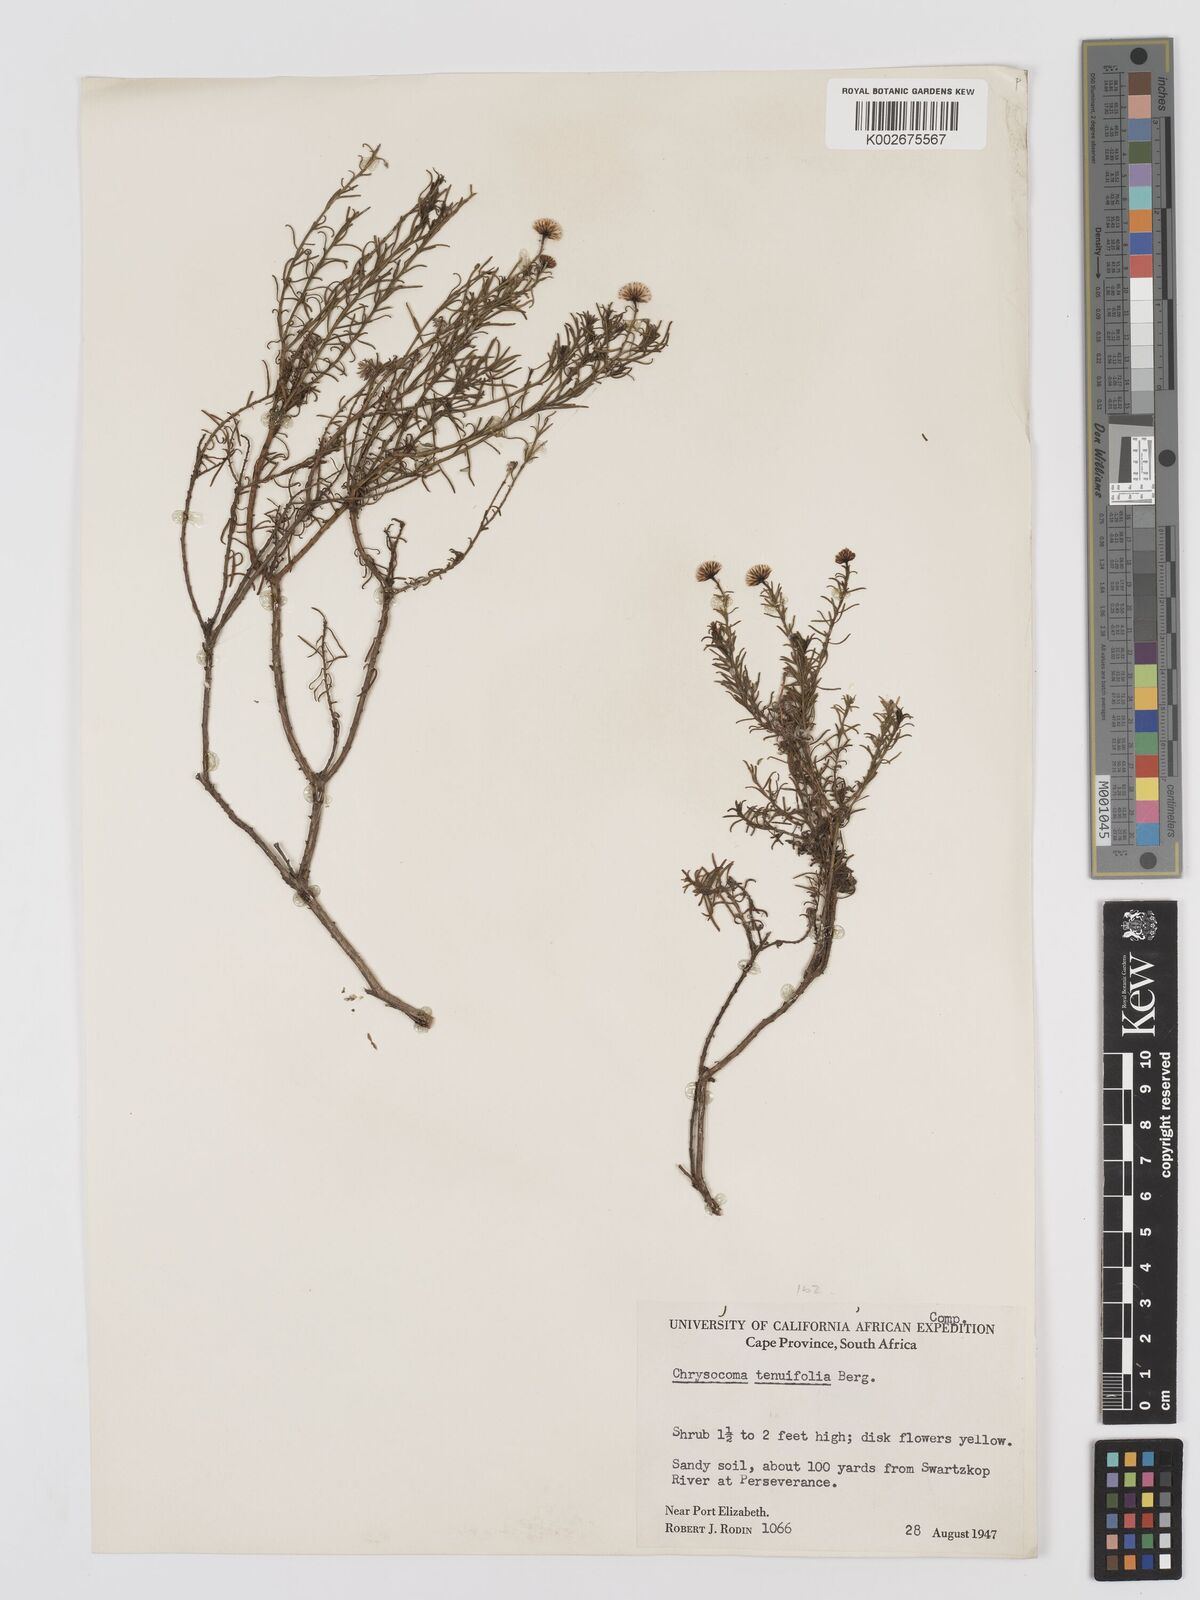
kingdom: Plantae
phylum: Tracheophyta
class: Magnoliopsida
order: Asterales
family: Asteraceae
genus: Chrysocoma
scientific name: Chrysocoma ciliata
